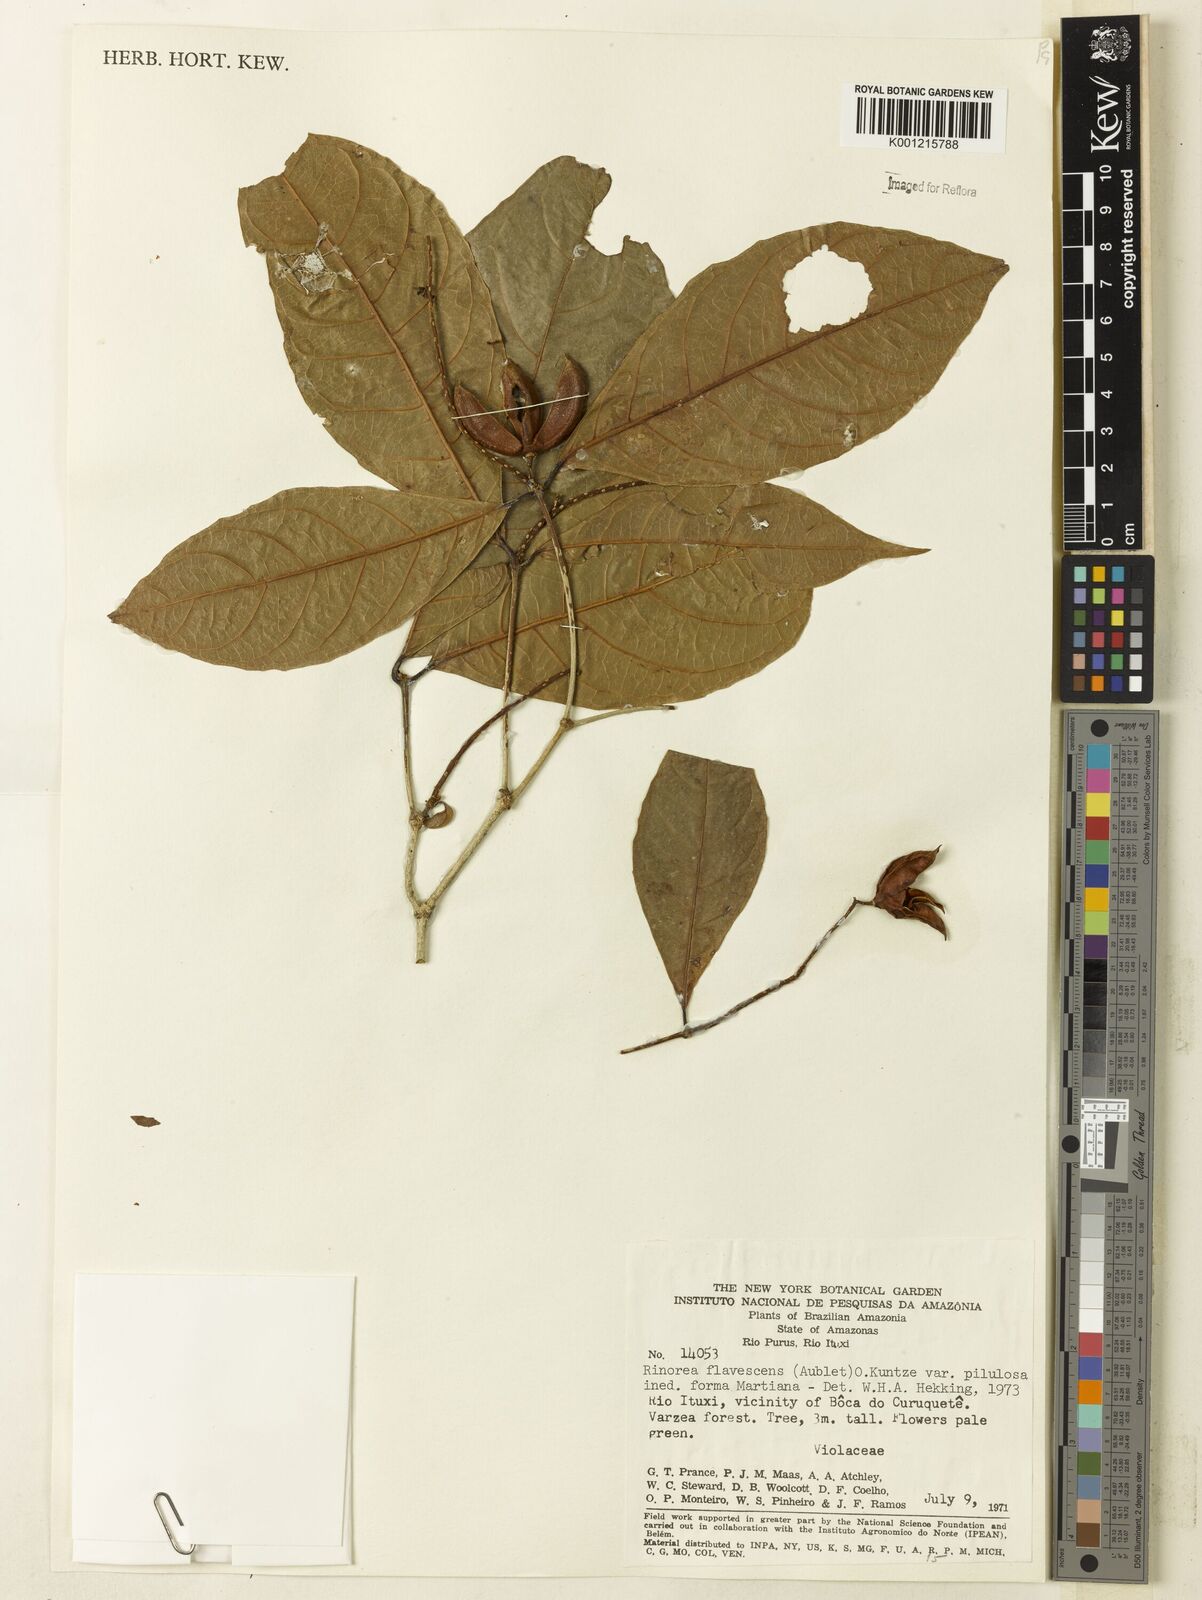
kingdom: Plantae
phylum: Tracheophyta
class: Magnoliopsida
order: Malpighiales
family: Violaceae
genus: Rinorea
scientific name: Rinorea flavescens
